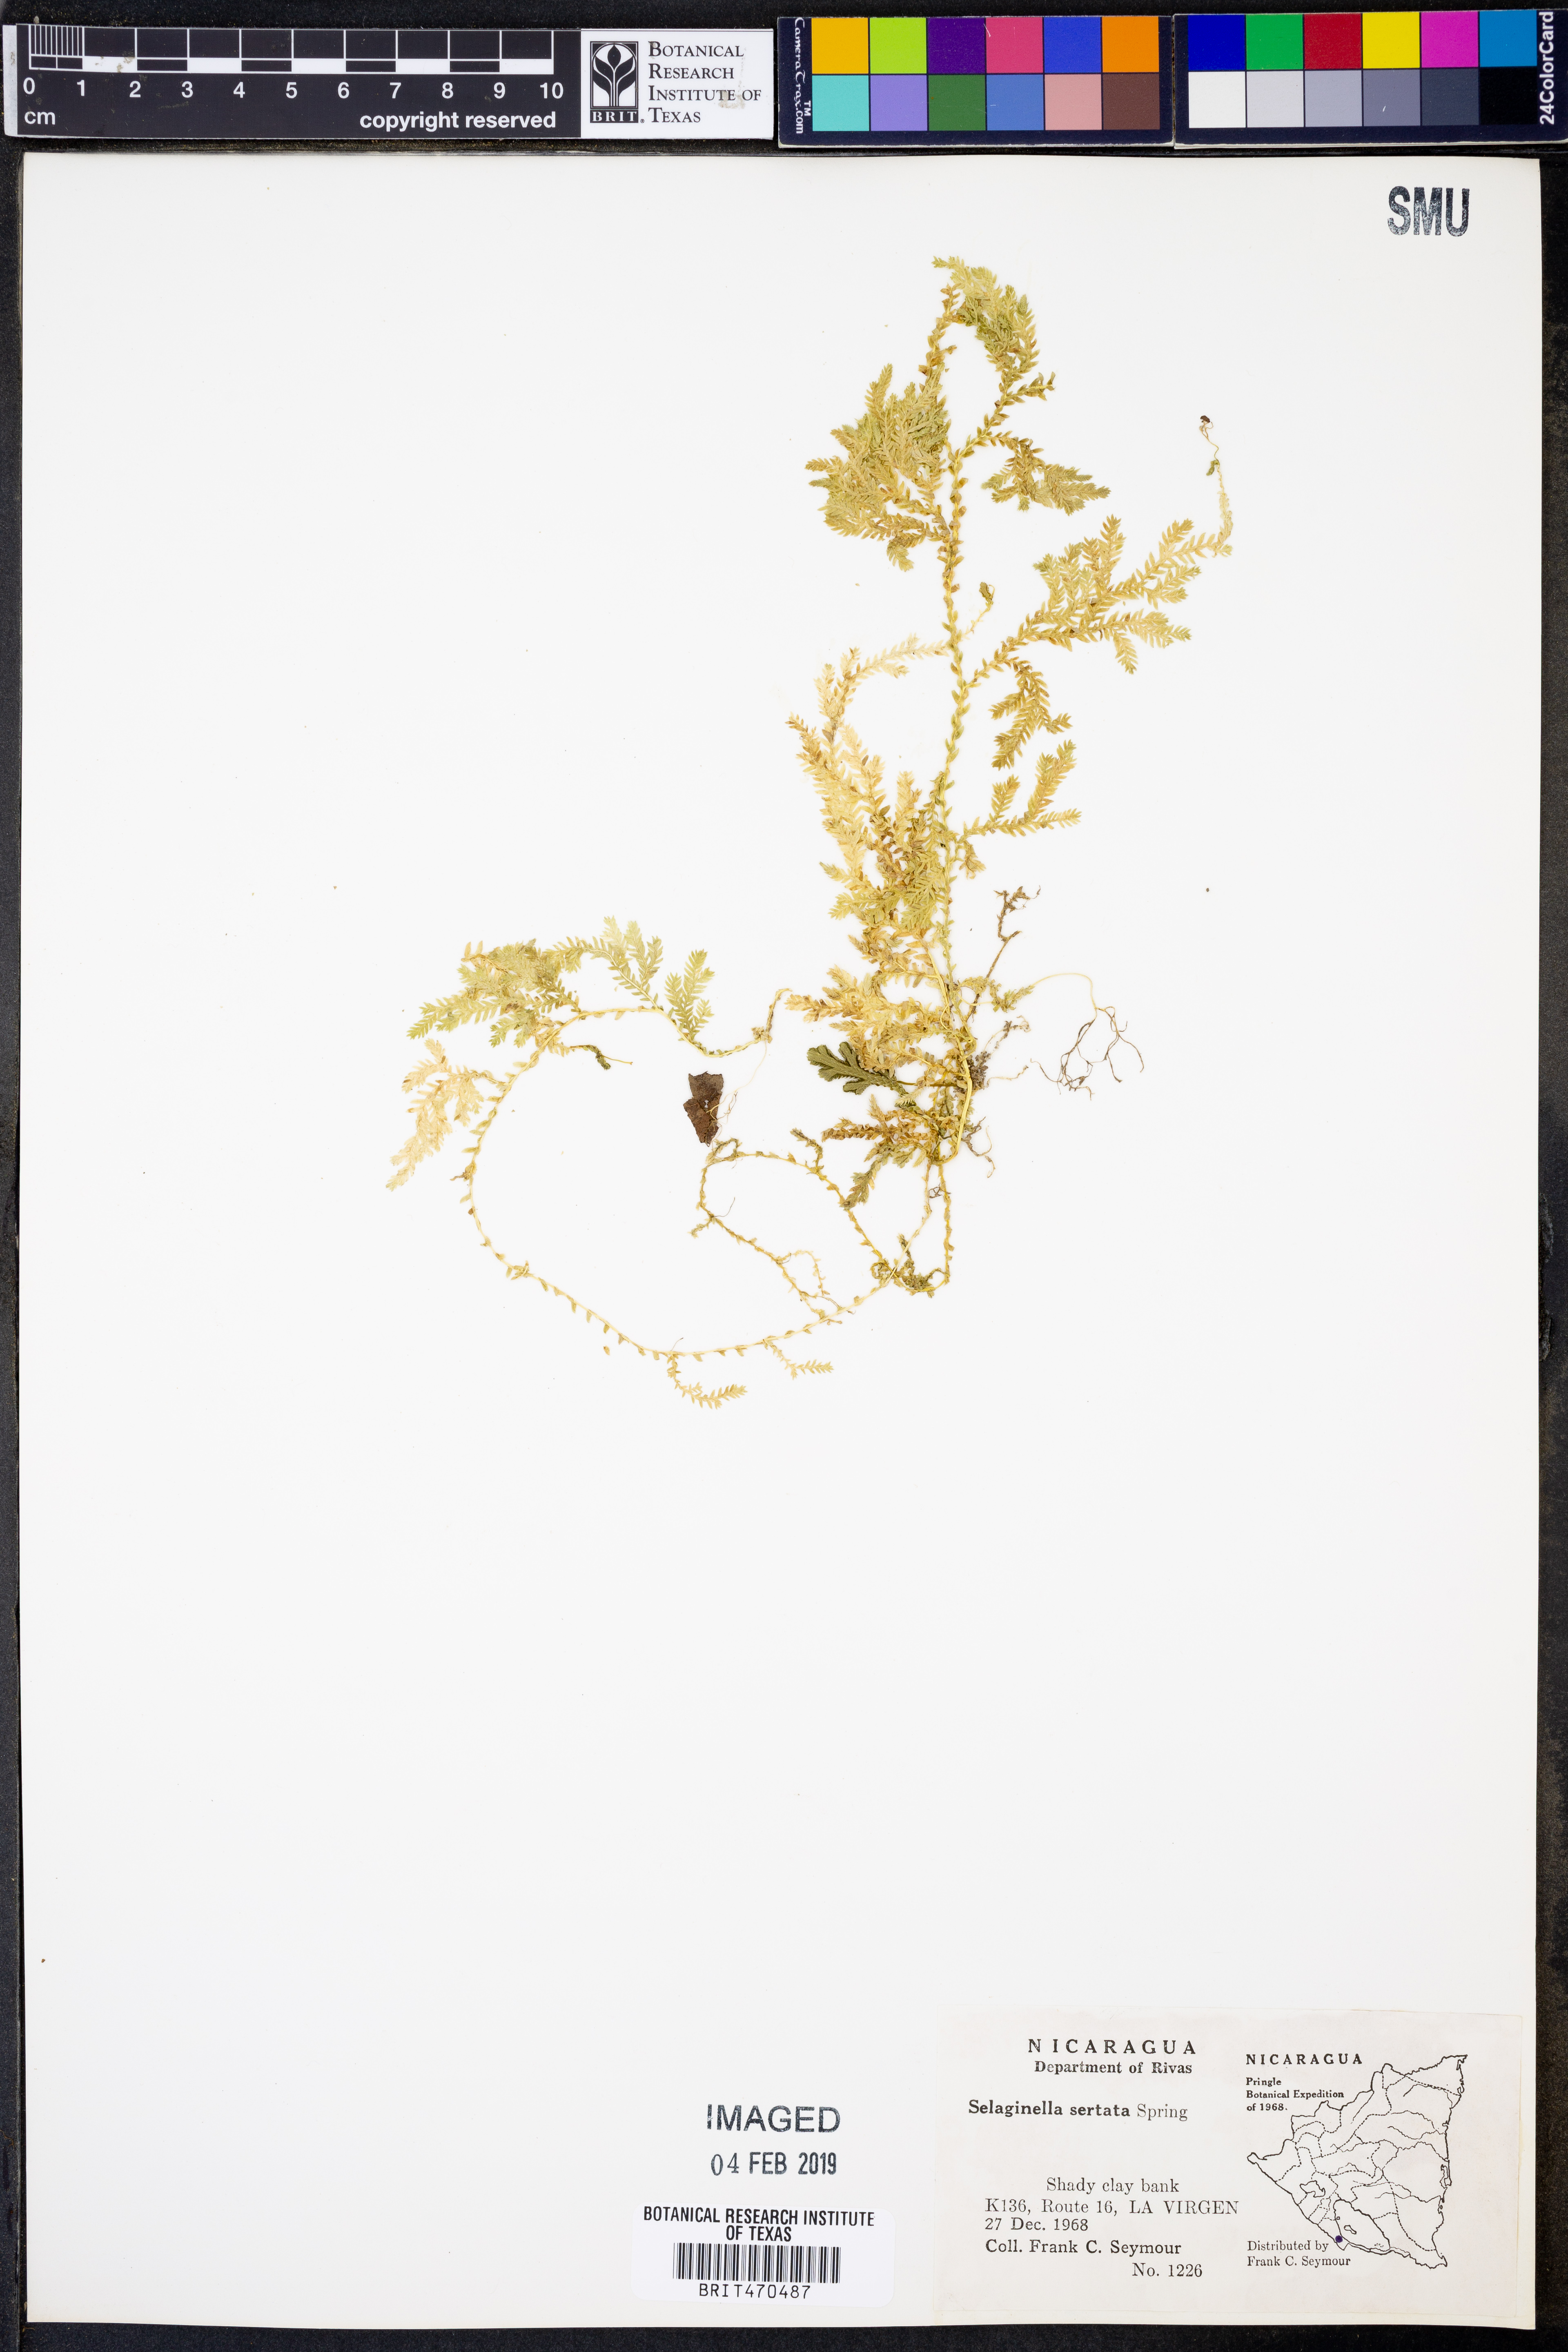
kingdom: Plantae
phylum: Tracheophyta
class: Lycopodiopsida
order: Selaginellales
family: Selaginellaceae
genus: Selaginella
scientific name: Selaginella sertata
